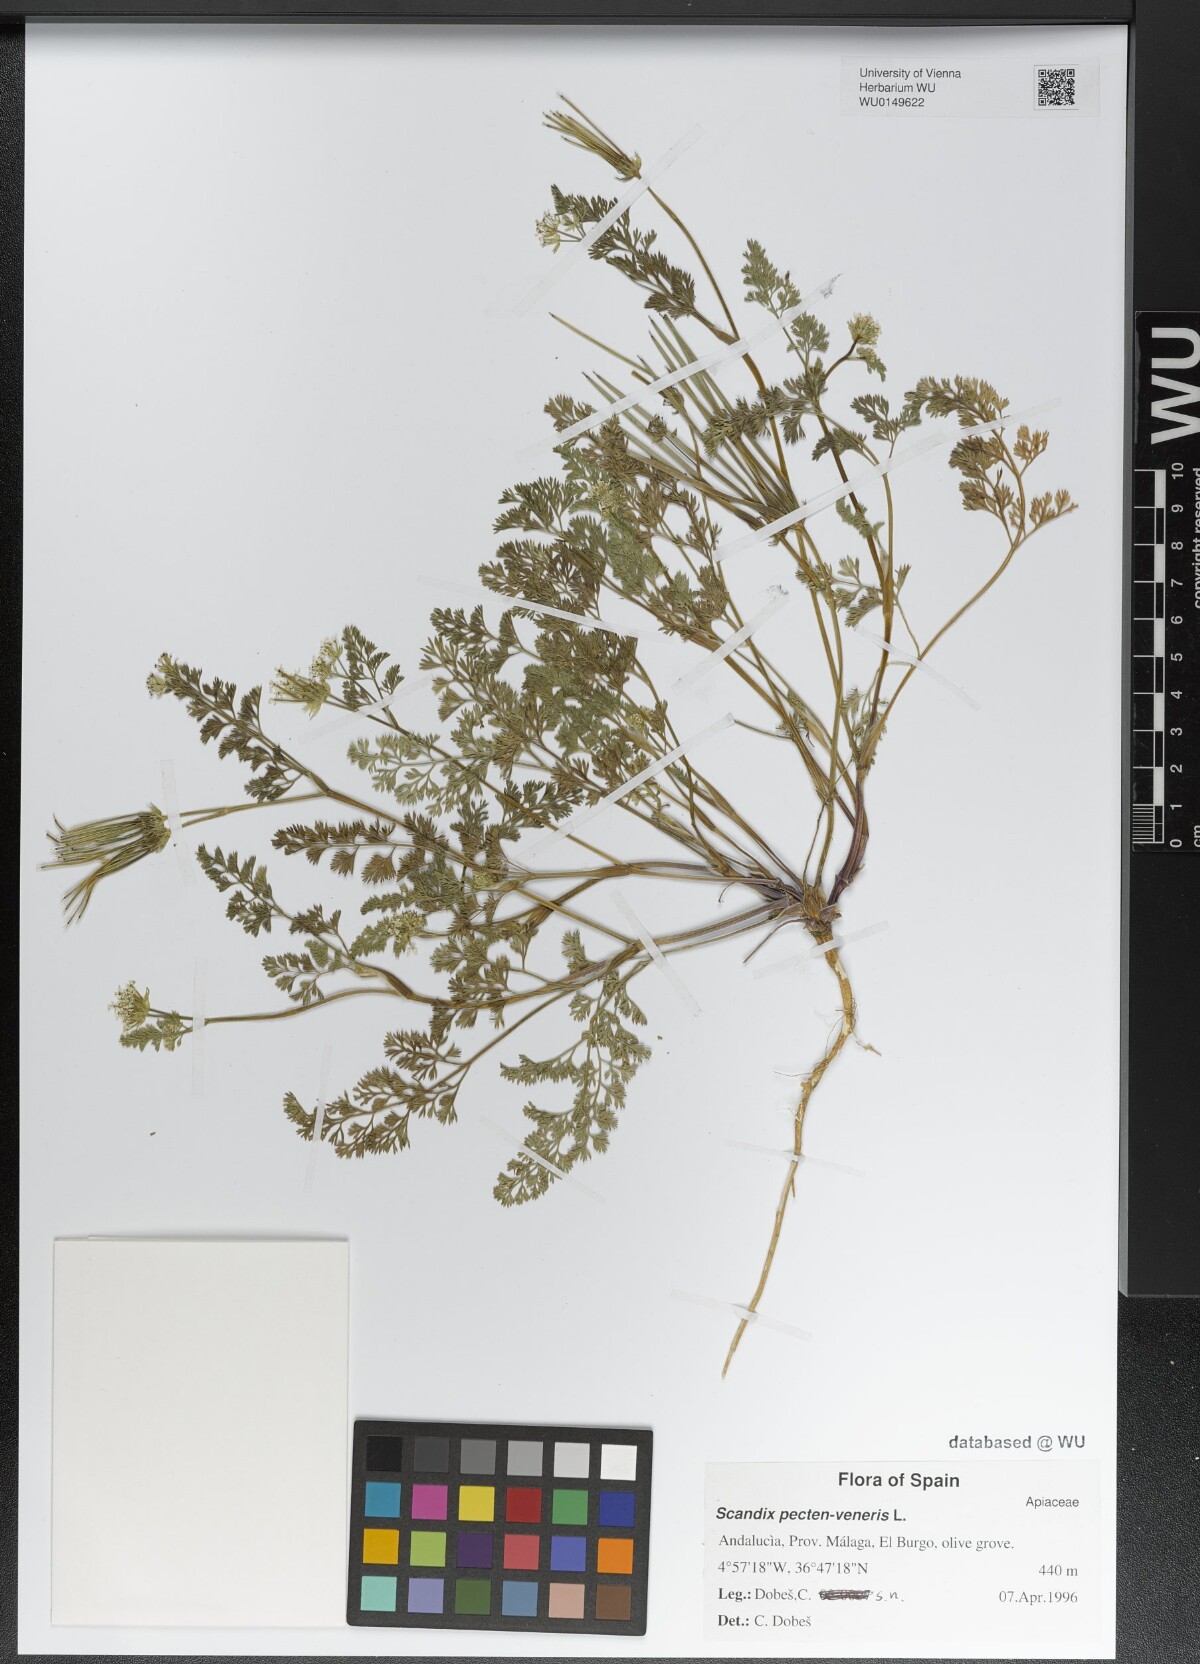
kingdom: Plantae
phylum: Tracheophyta
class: Magnoliopsida
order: Apiales
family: Apiaceae
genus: Scandix
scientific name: Scandix pecten-veneris
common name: Shepherd's-needle
